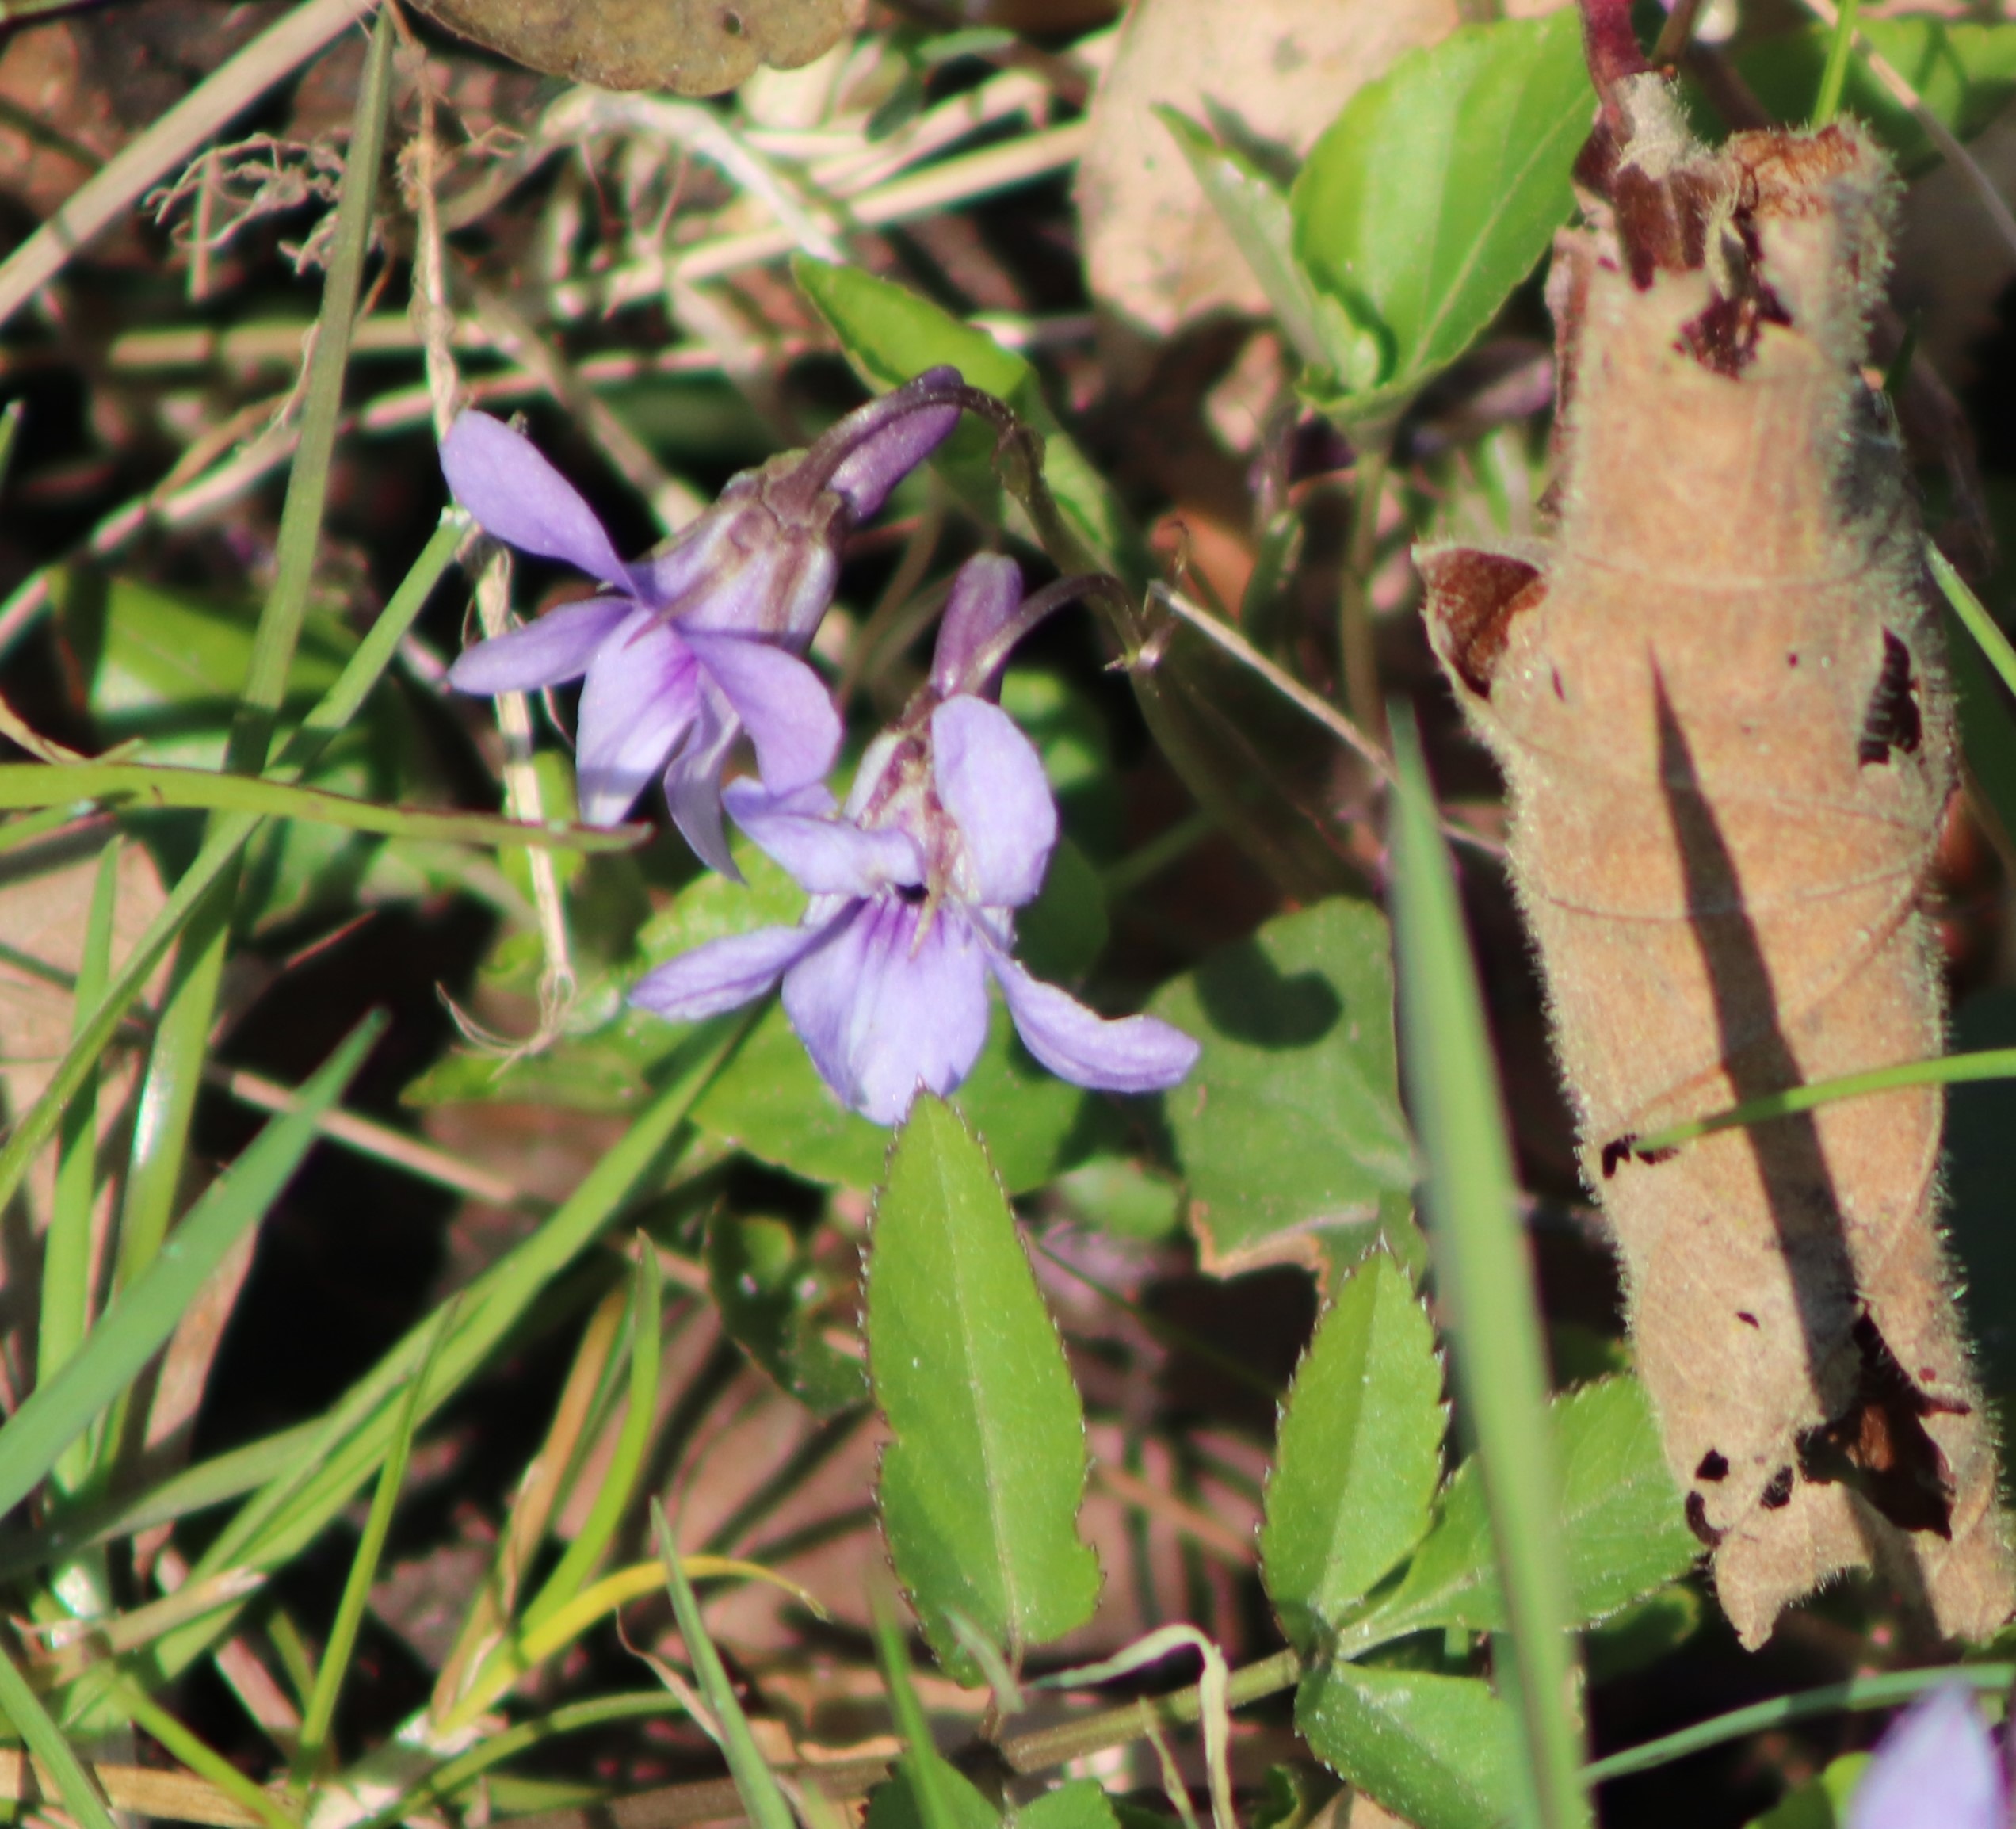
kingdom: Plantae
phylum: Tracheophyta
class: Magnoliopsida
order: Malpighiales
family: Violaceae
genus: Viola
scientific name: Viola reichenbachiana
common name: Skov-viol
